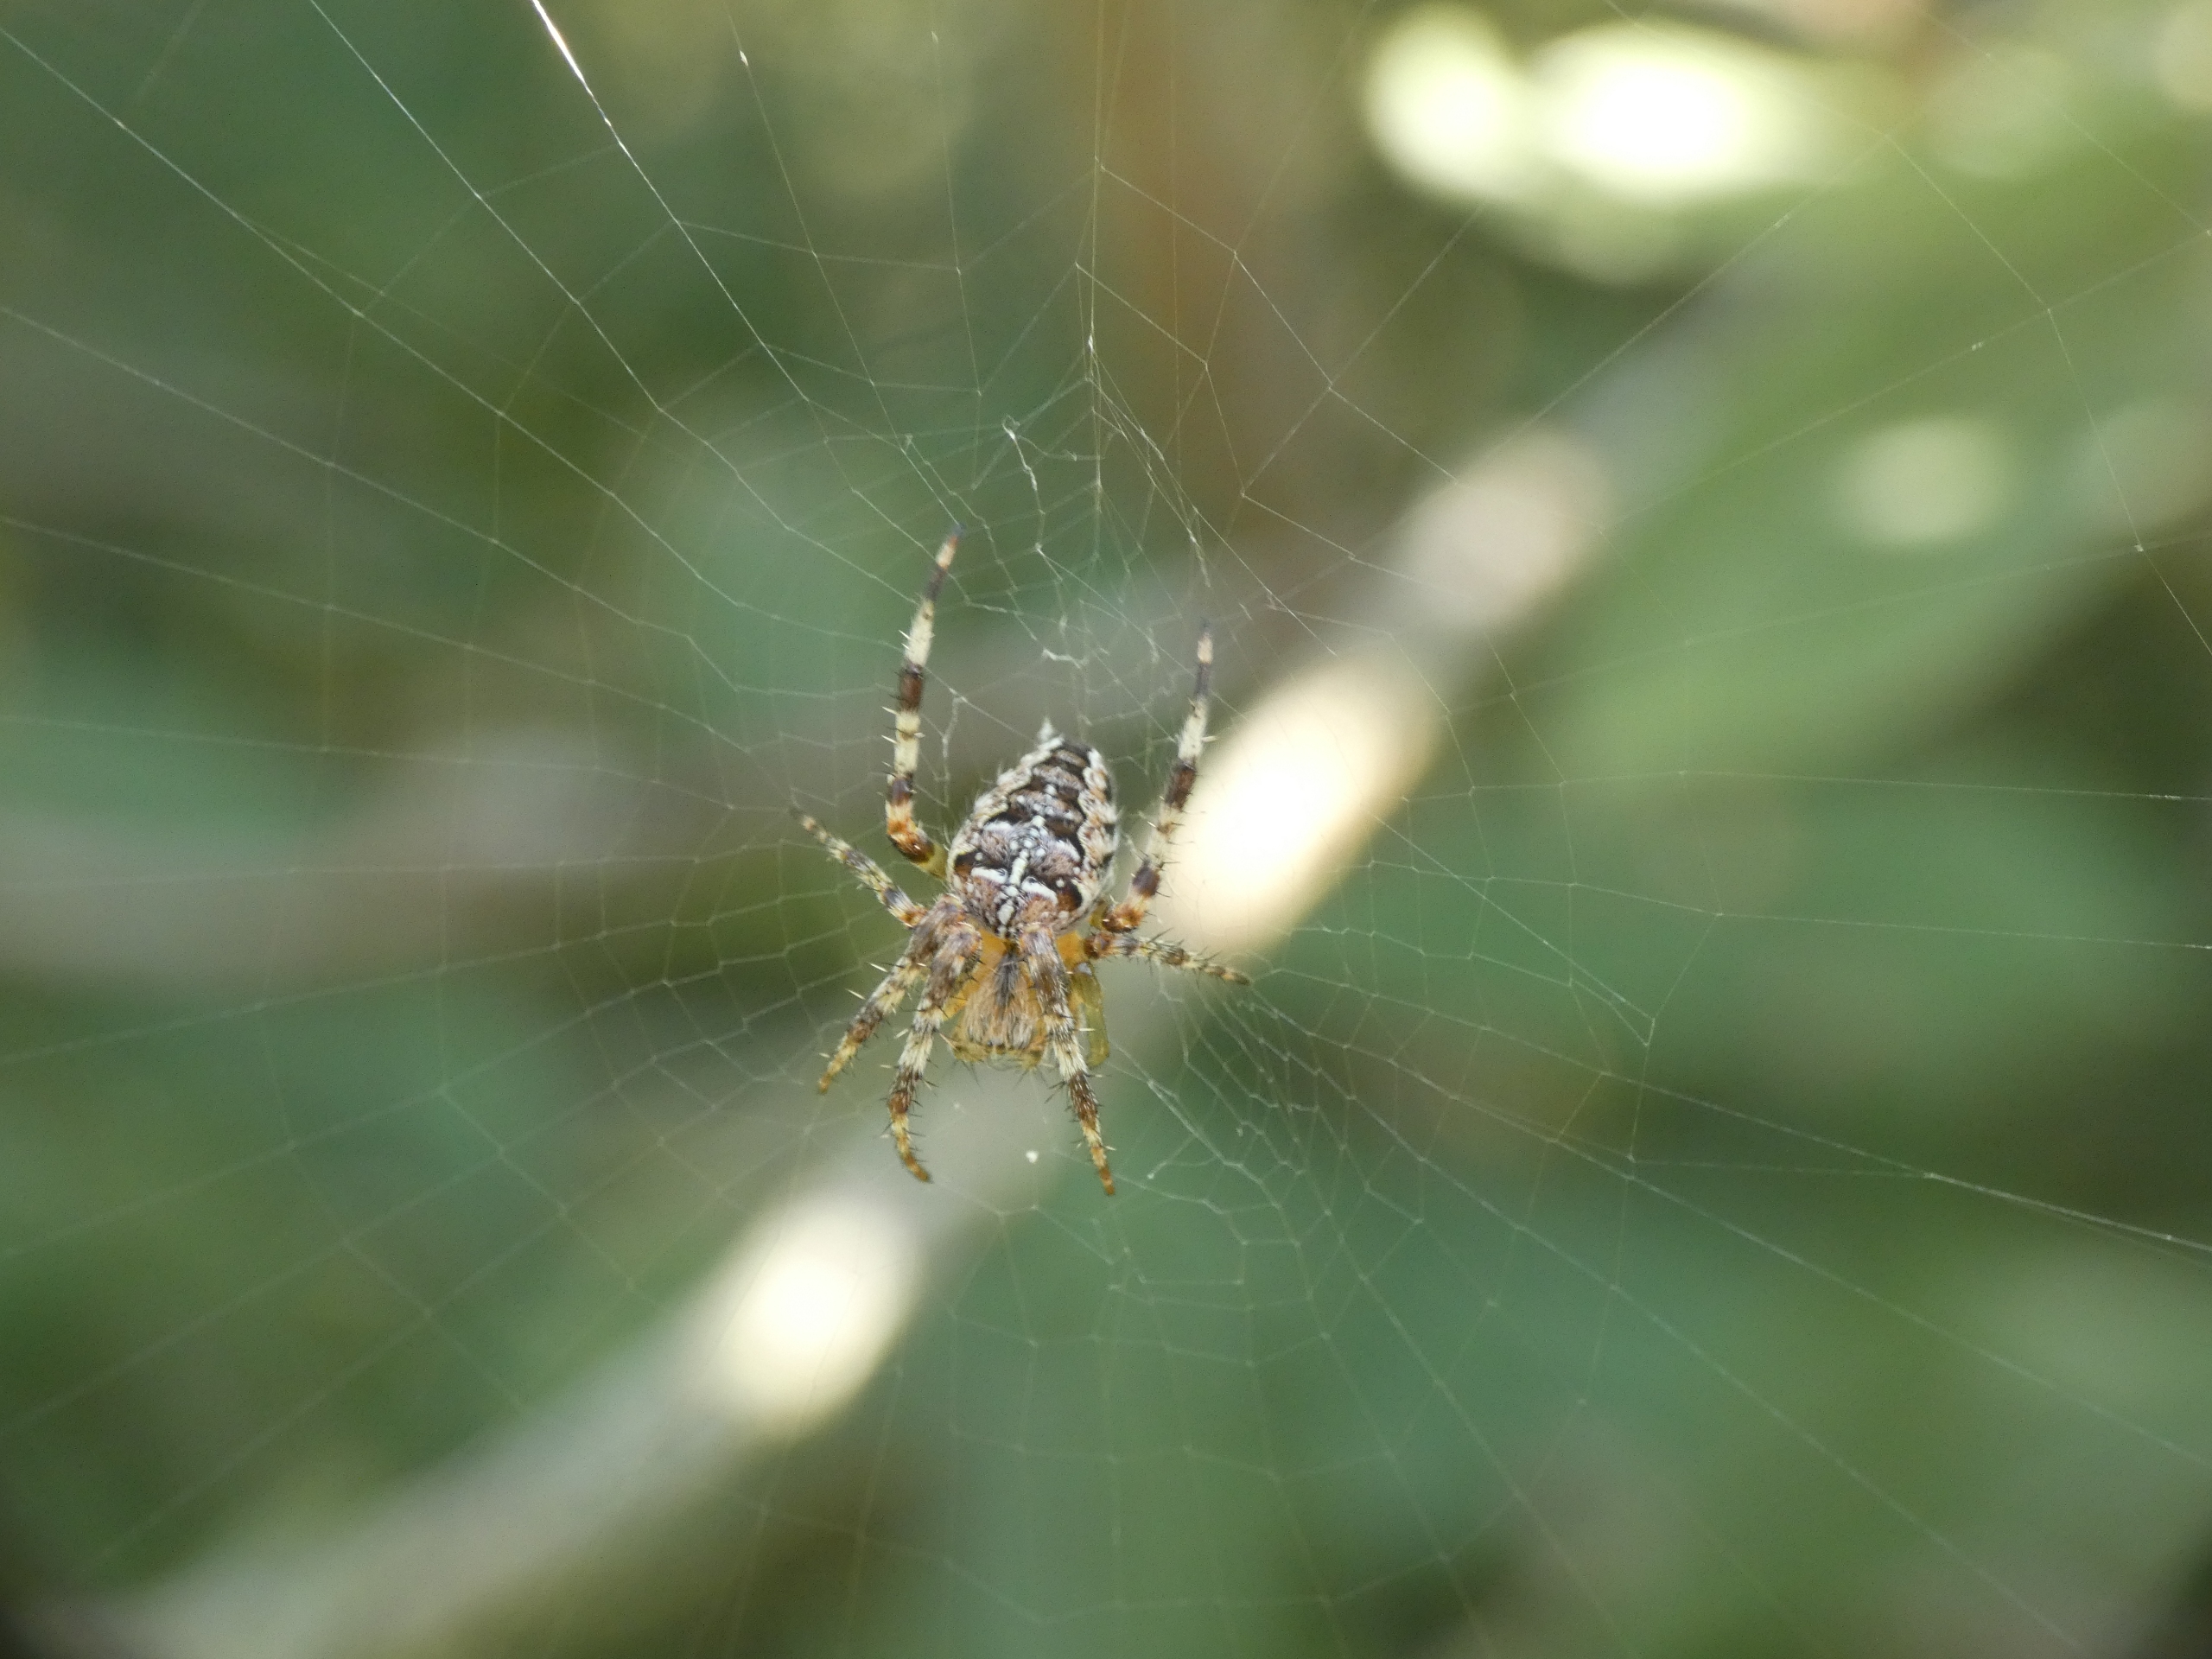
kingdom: Animalia
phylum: Arthropoda
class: Arachnida
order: Araneae
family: Araneidae
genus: Araneus
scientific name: Araneus diadematus
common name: Korsedderkop
